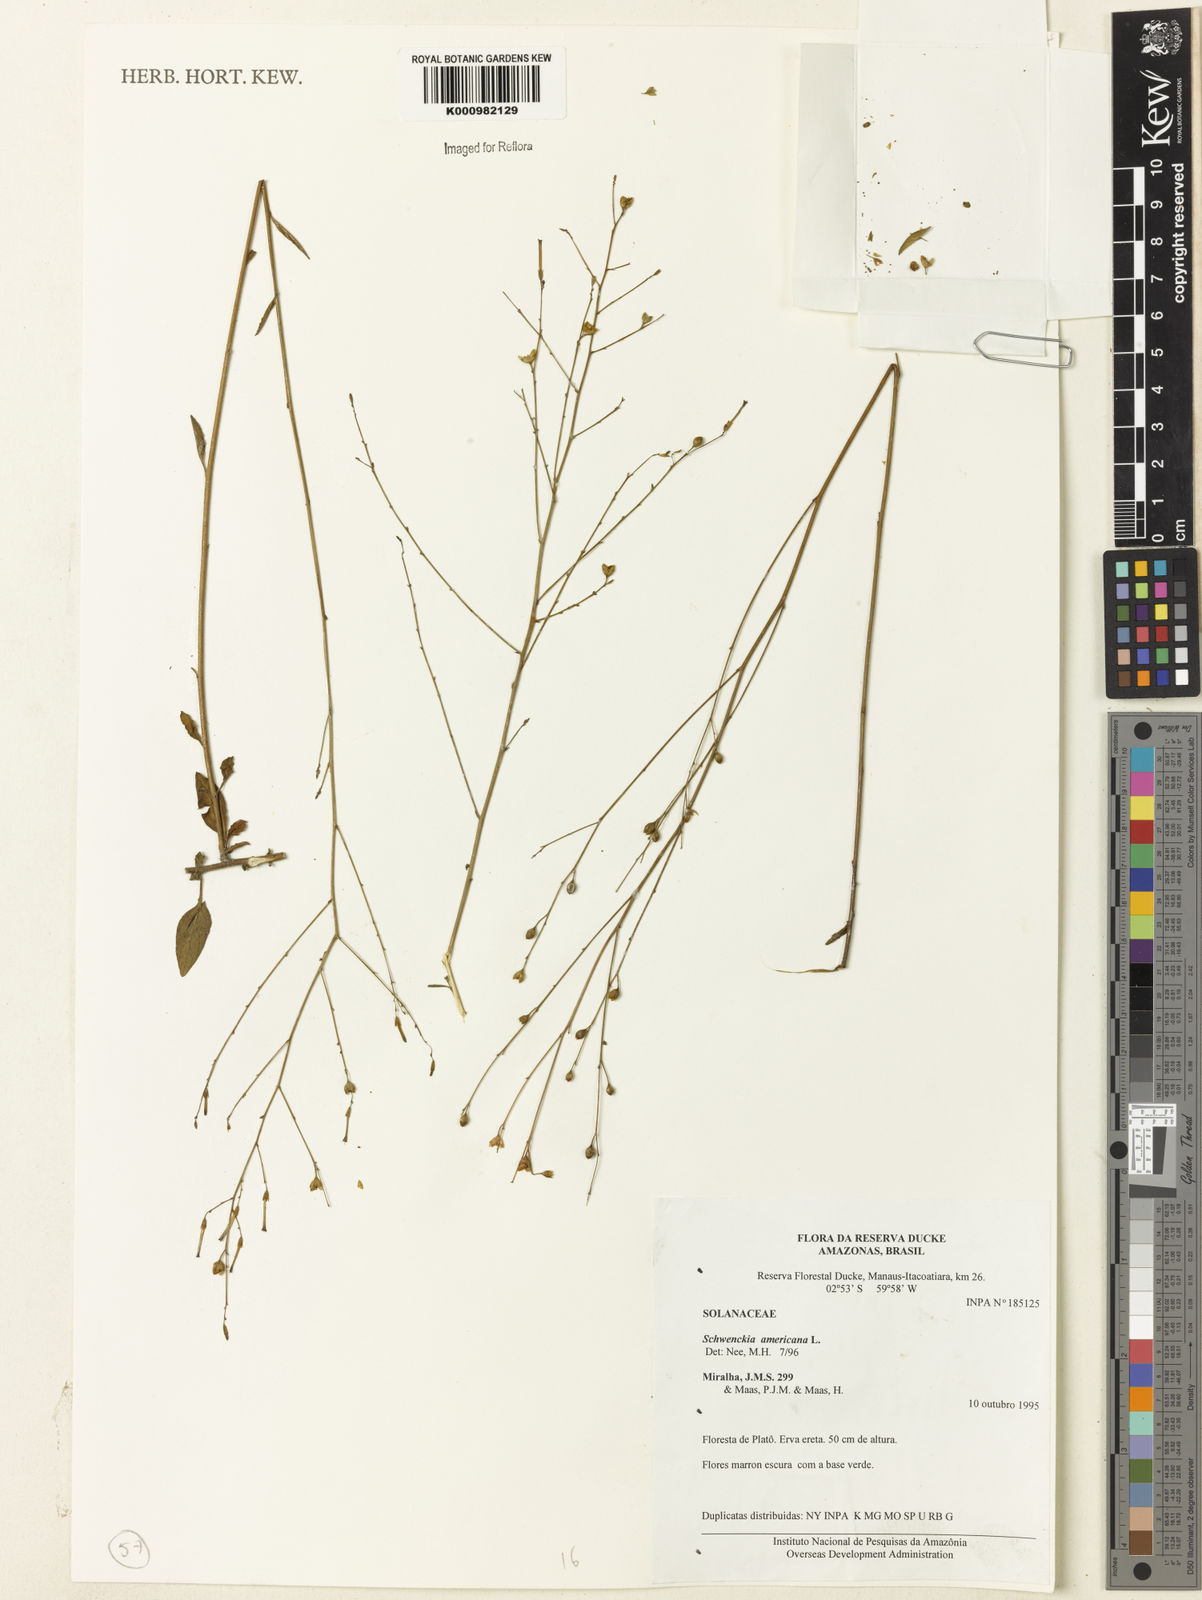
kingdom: Plantae
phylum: Tracheophyta
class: Magnoliopsida
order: Solanales
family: Solanaceae
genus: Schwenckia
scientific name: Schwenckia americana
